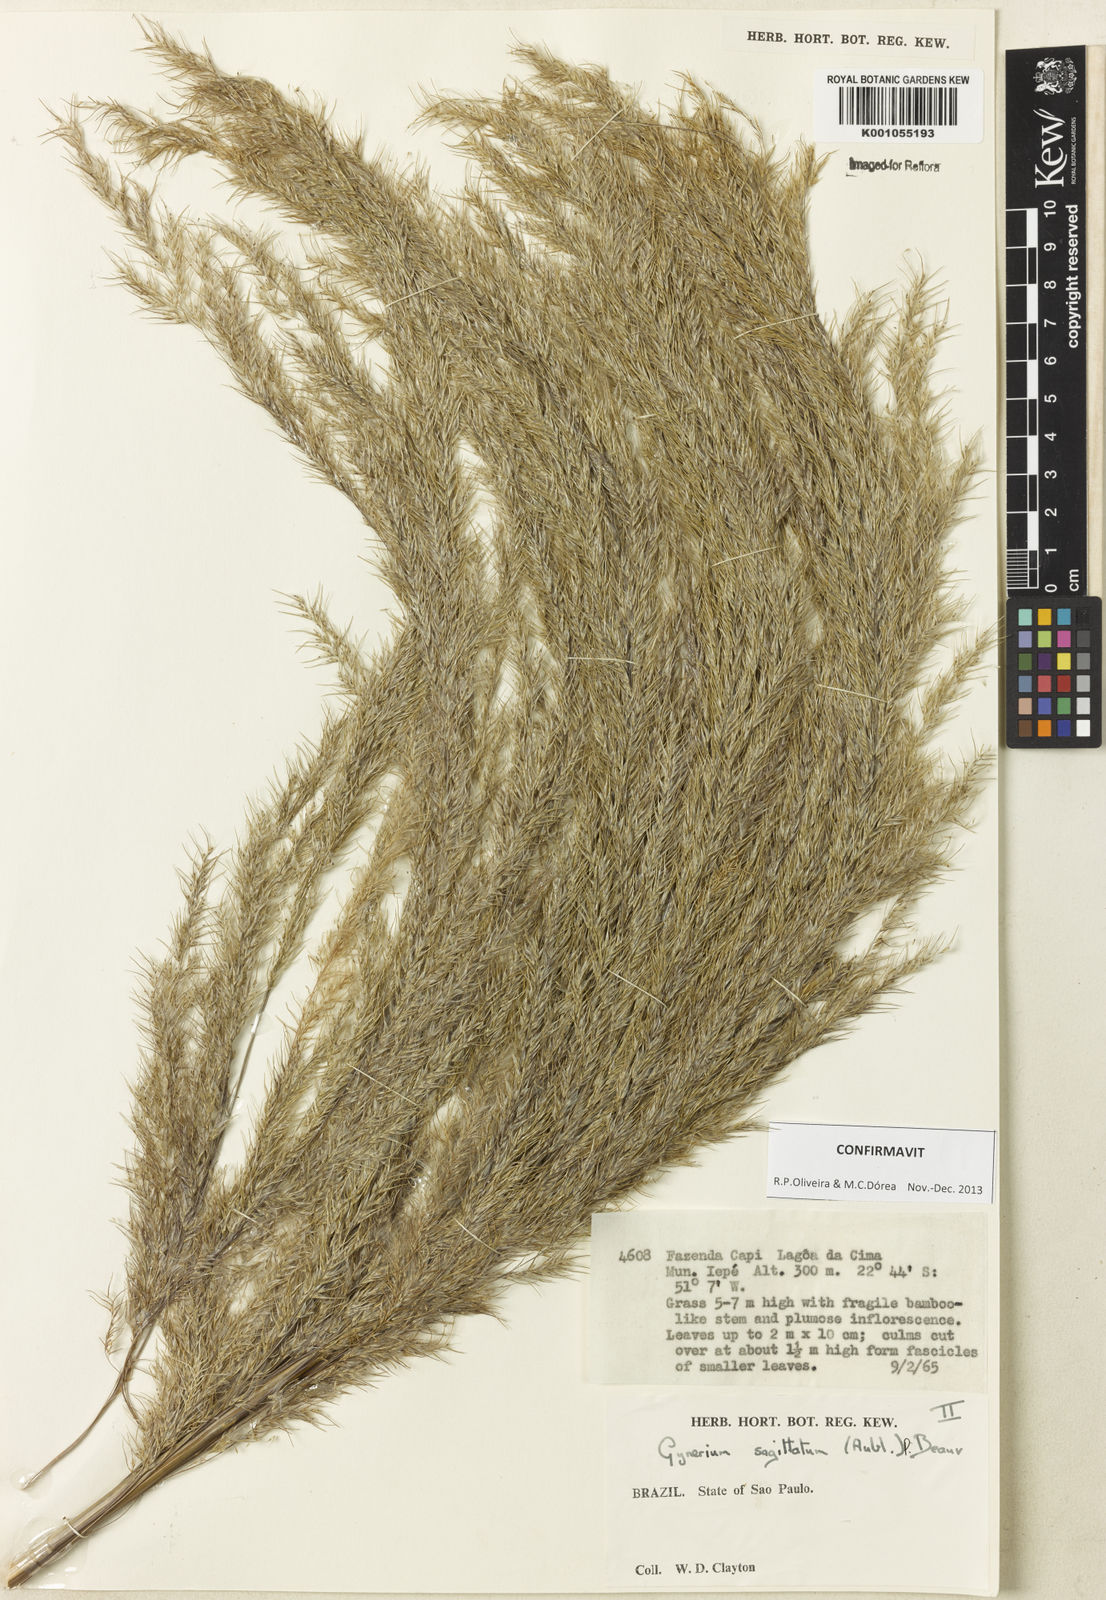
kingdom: Plantae
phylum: Tracheophyta
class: Liliopsida
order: Poales
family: Poaceae
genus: Gynerium
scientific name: Gynerium sagittatum
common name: Wild cane
